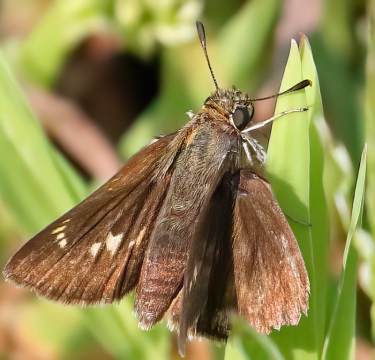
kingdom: Animalia
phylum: Arthropoda
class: Insecta
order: Lepidoptera
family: Hesperiidae
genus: Vernia
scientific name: Vernia verna
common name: Little Glassywing
